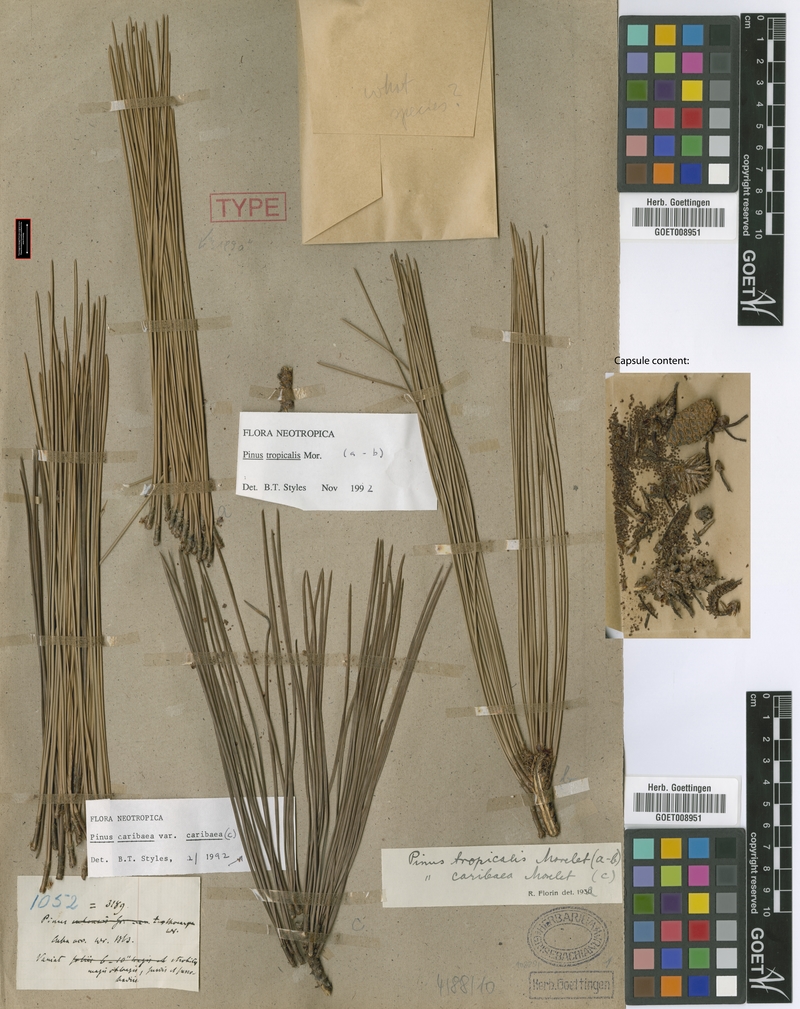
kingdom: Plantae
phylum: Tracheophyta
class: Pinopsida
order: Pinales
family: Pinaceae
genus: Pinus
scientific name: Pinus tropicalis
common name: Tropical pine
